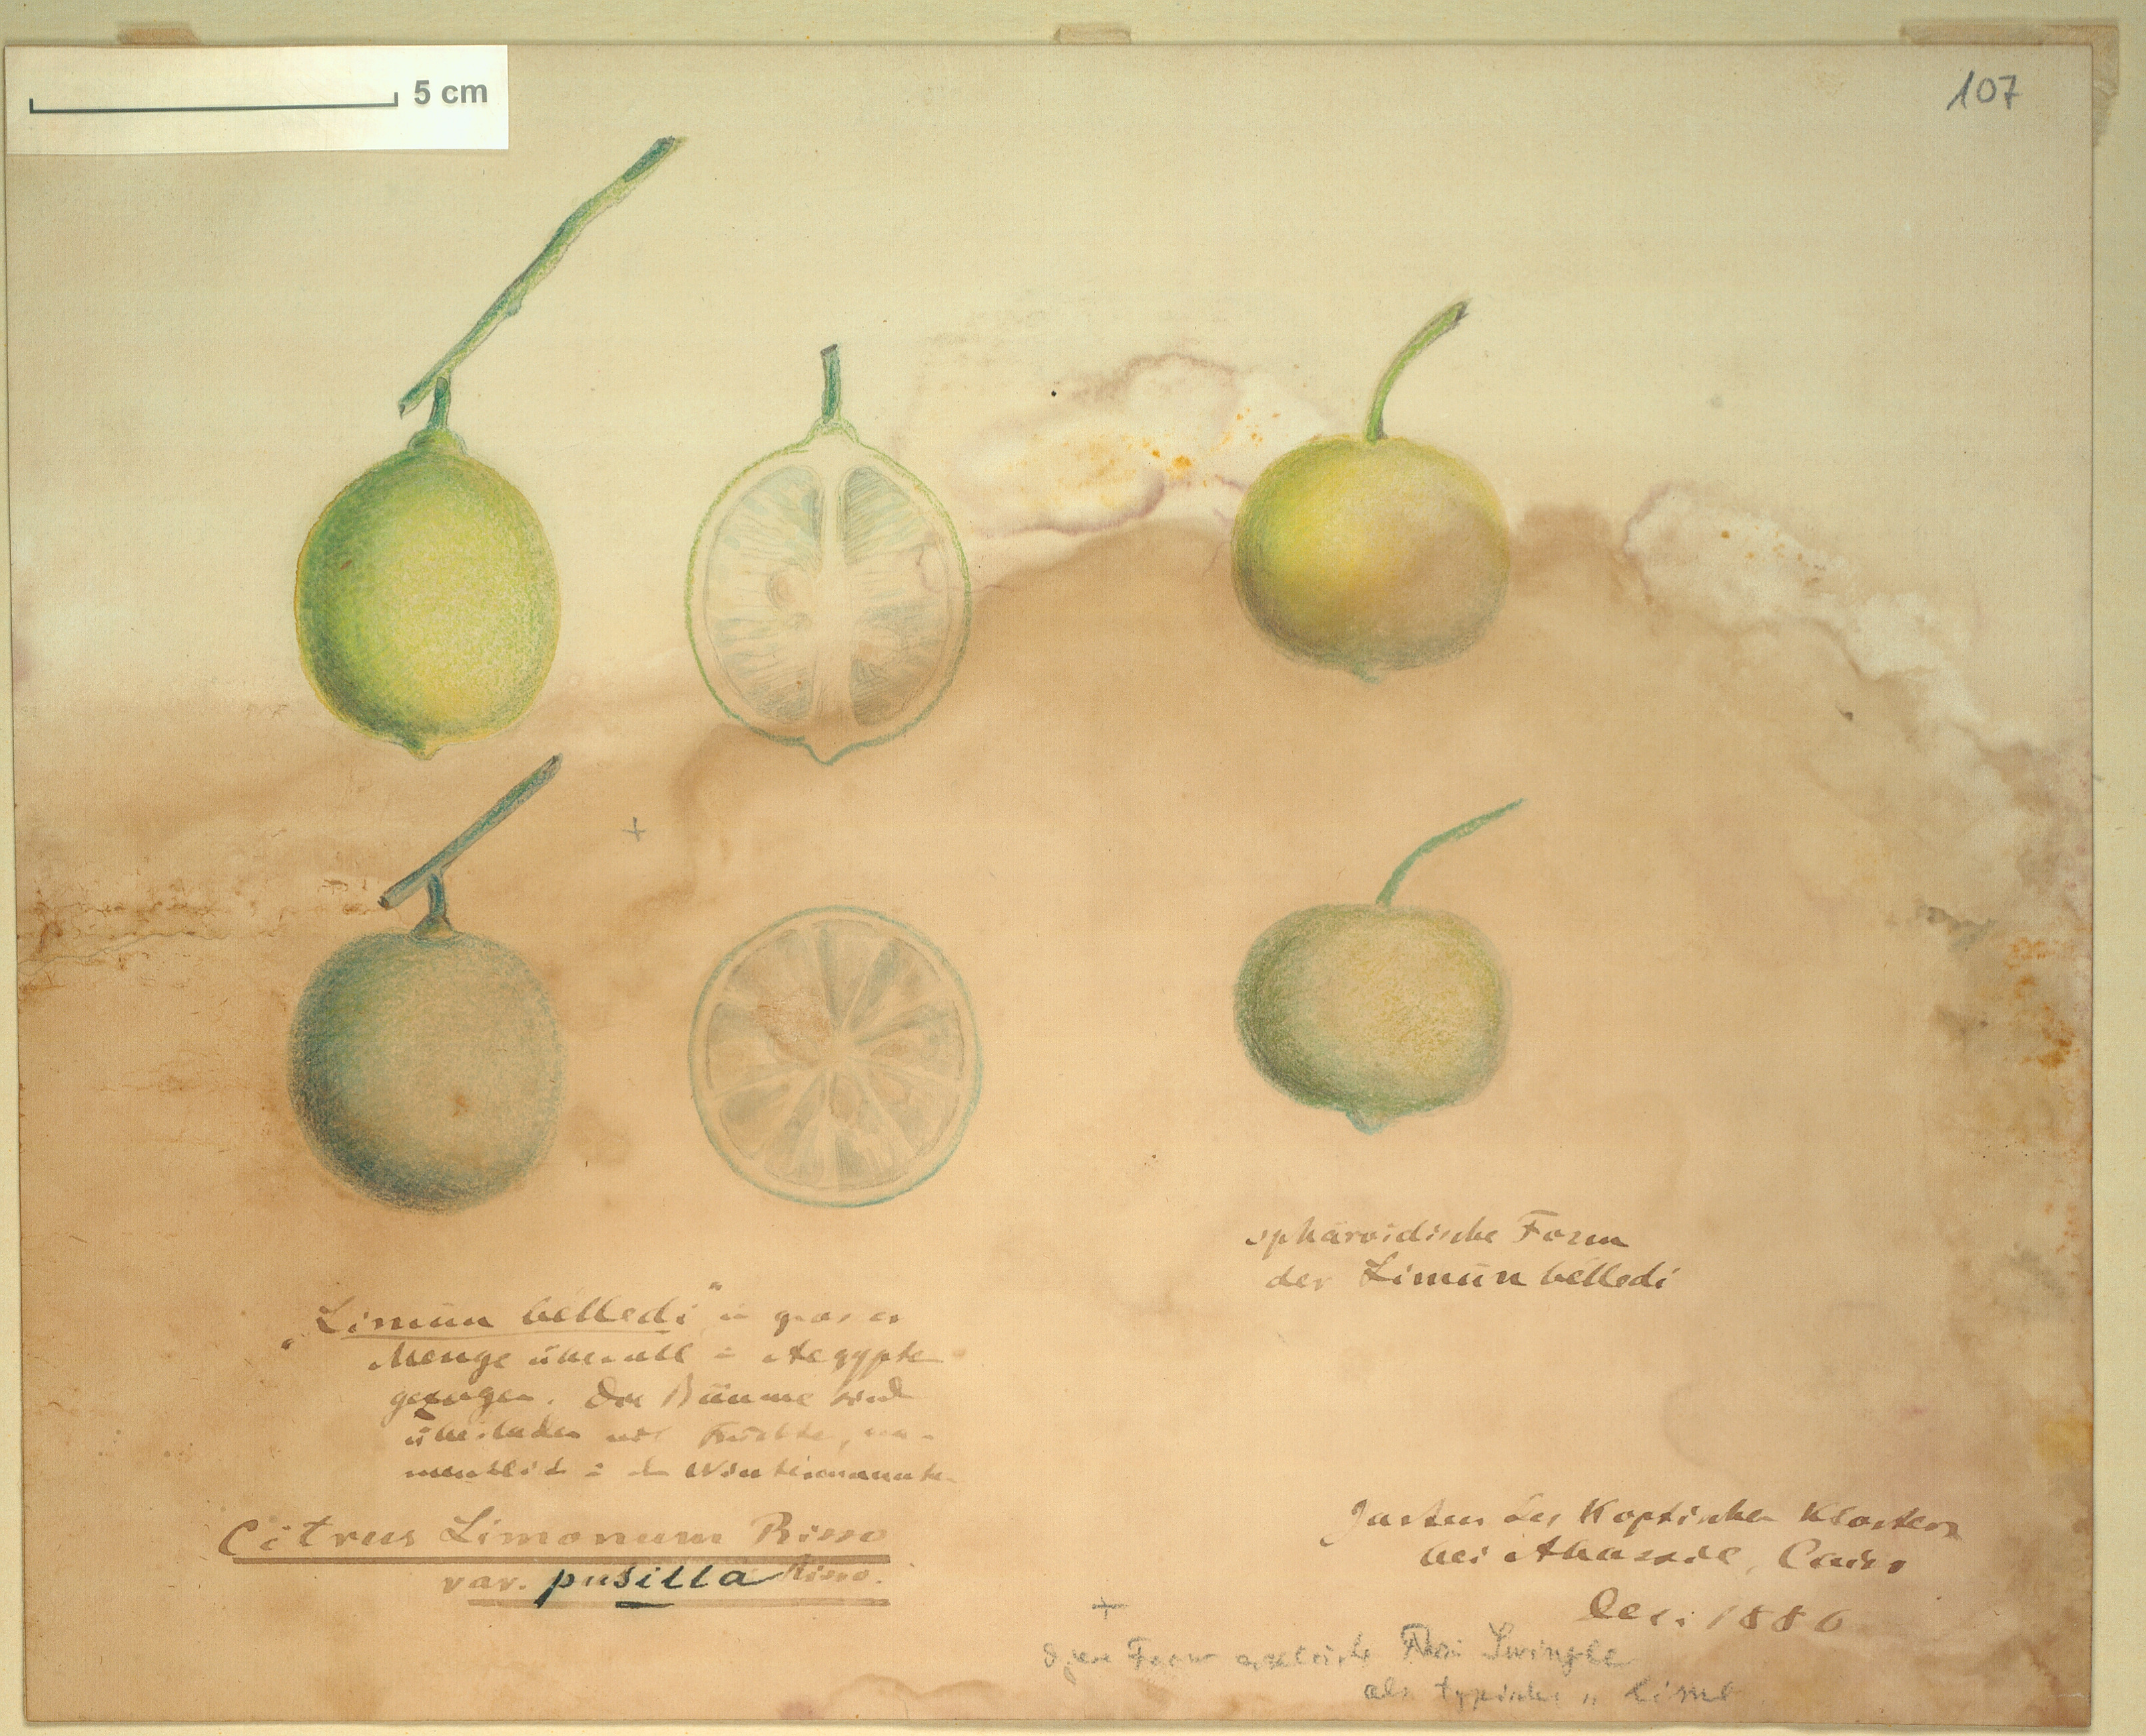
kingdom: Plantae
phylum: Tracheophyta
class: Magnoliopsida
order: Sapindales
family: Rutaceae
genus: Citrus
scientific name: Citrus limon
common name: Lemon
